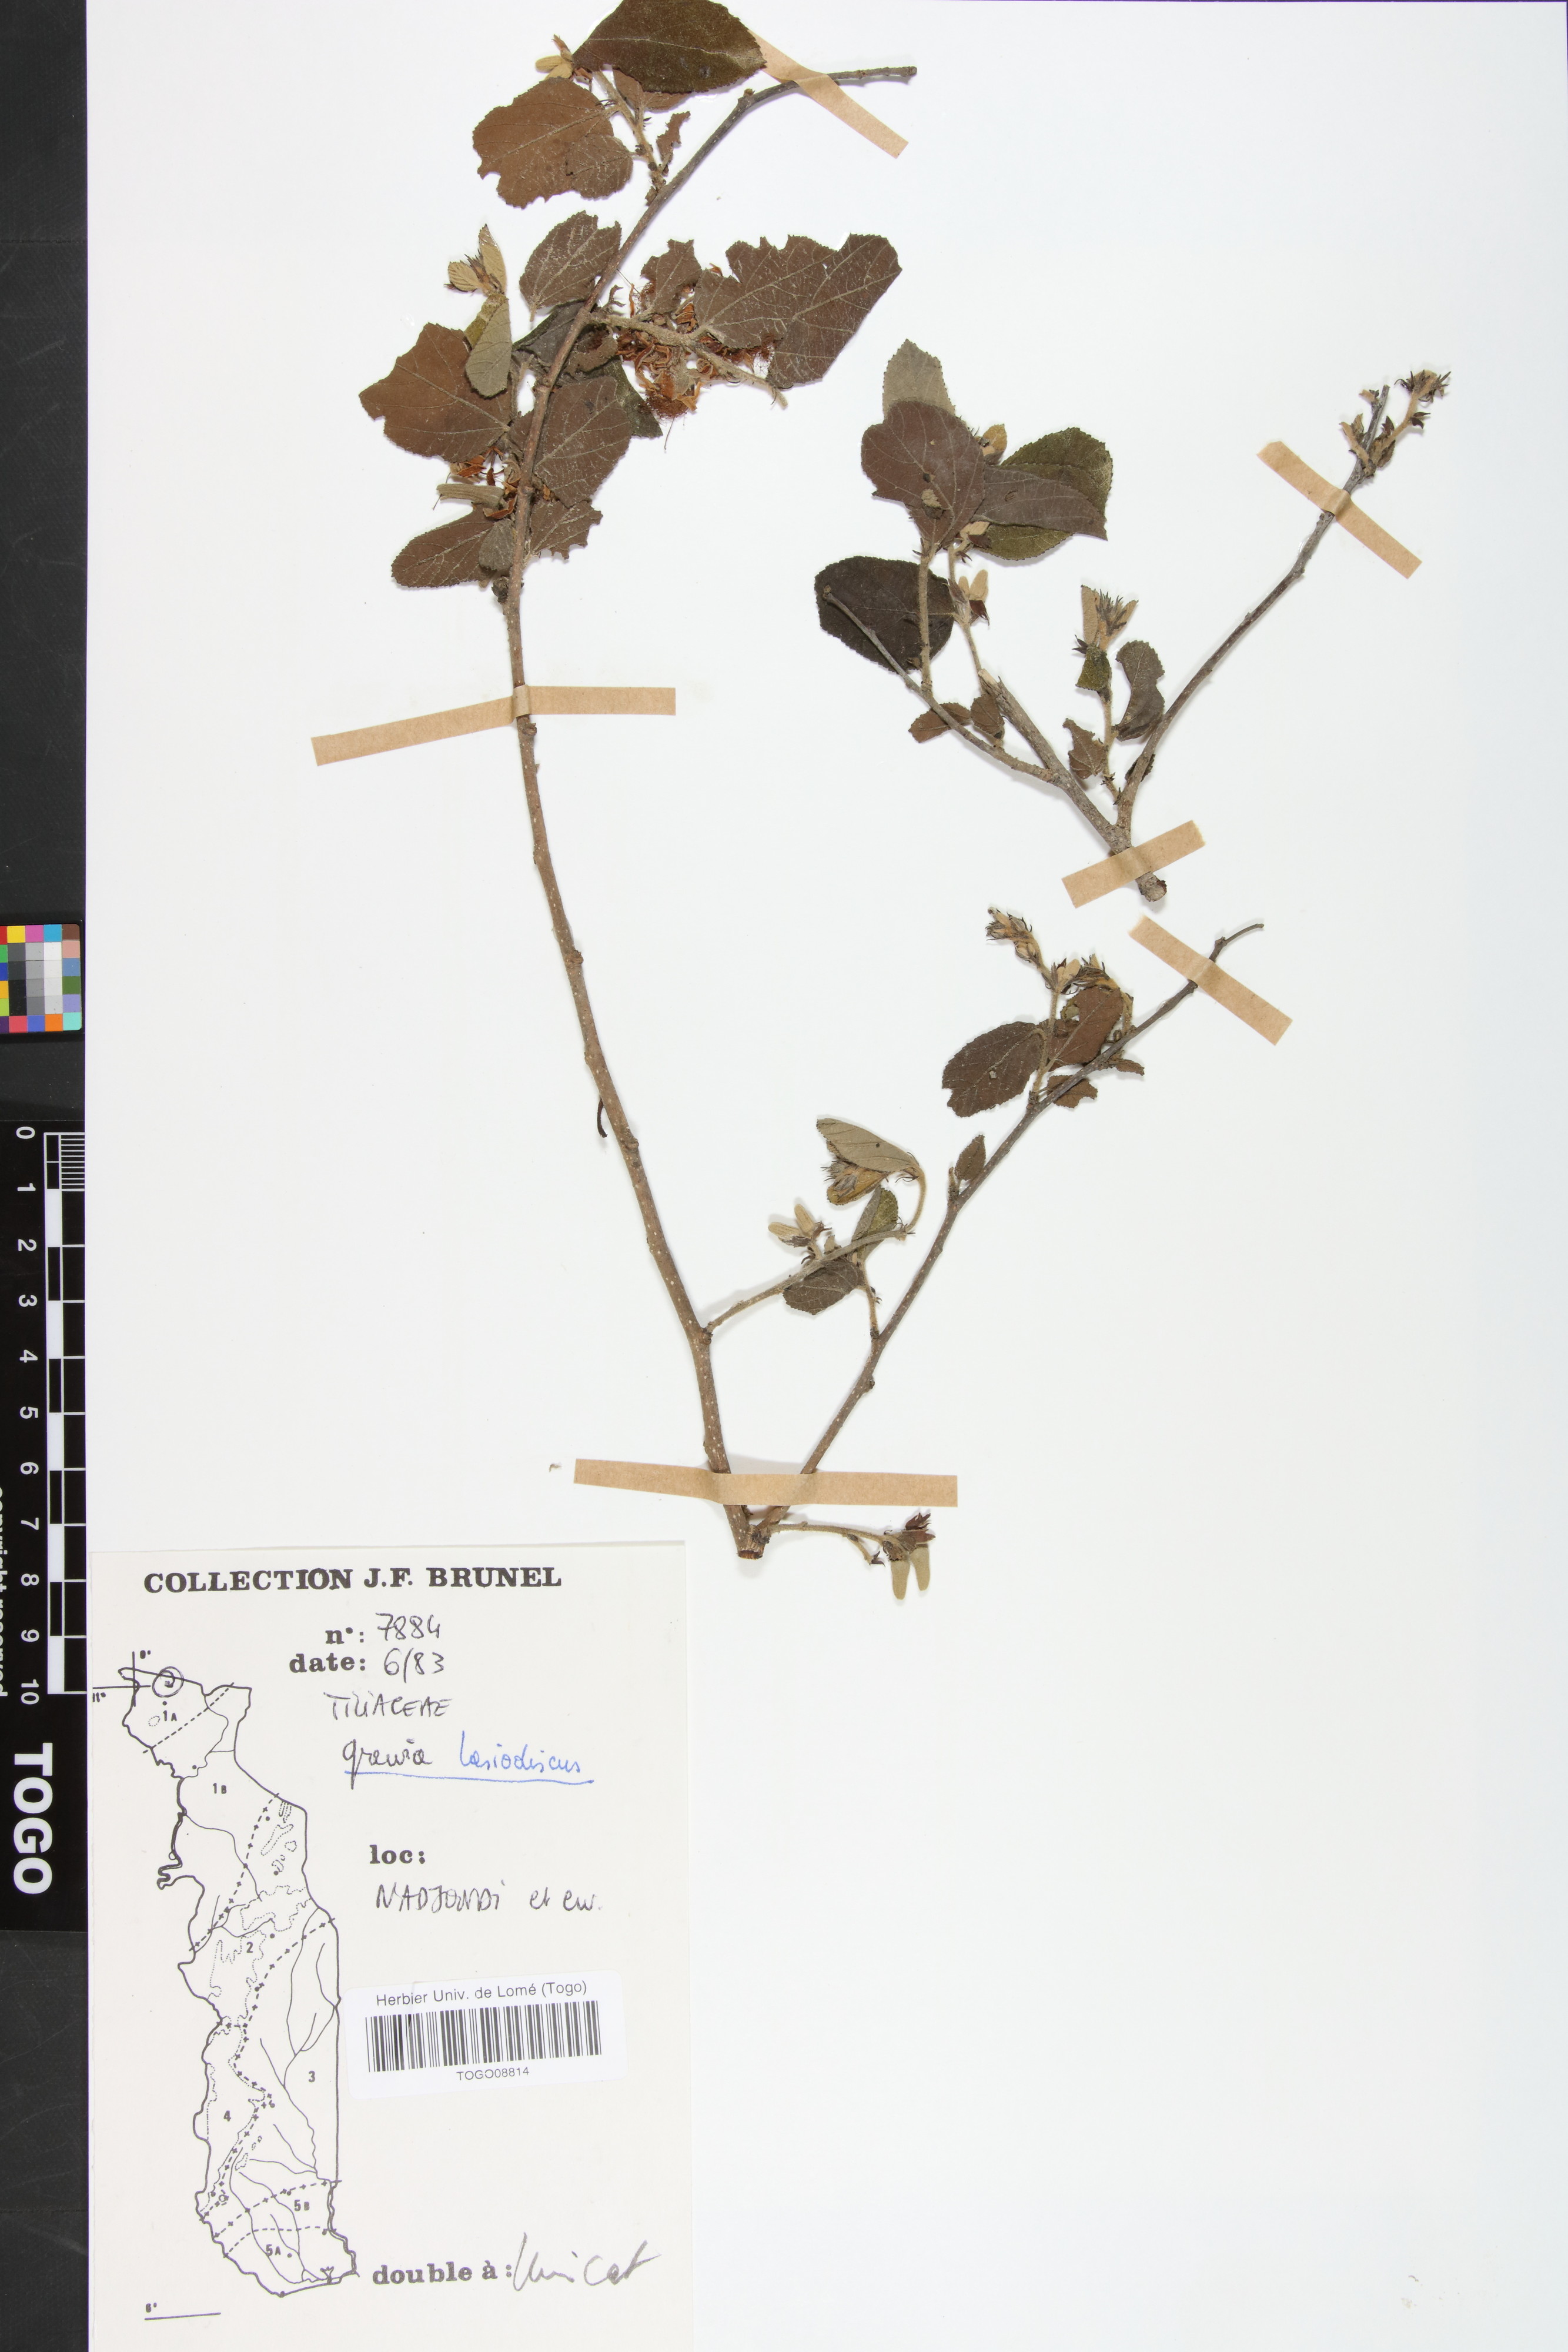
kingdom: Plantae
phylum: Tracheophyta
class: Magnoliopsida
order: Malvales
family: Malvaceae
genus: Grewia
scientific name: Grewia lasiodiscus
